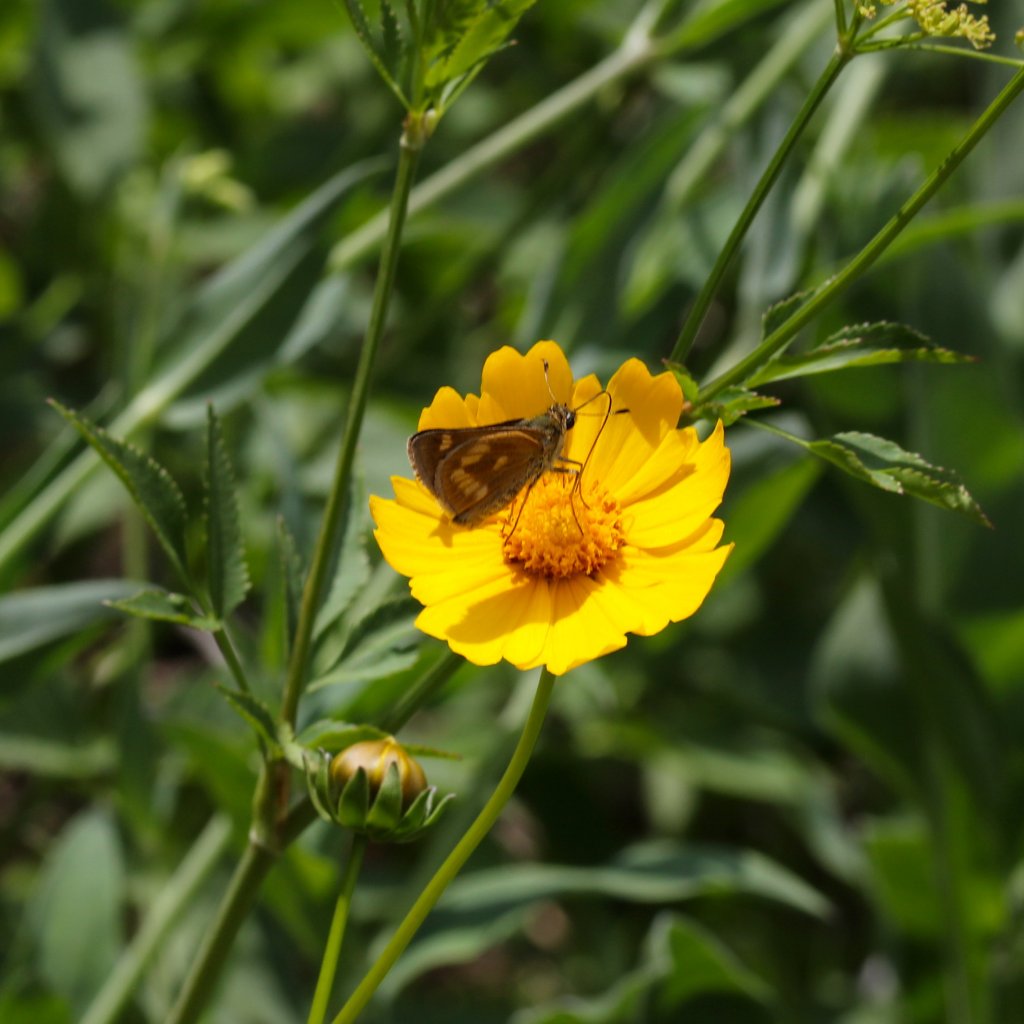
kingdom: Animalia
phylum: Arthropoda
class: Insecta
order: Lepidoptera
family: Hesperiidae
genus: Polites
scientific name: Polites
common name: Long Dash Skipper
